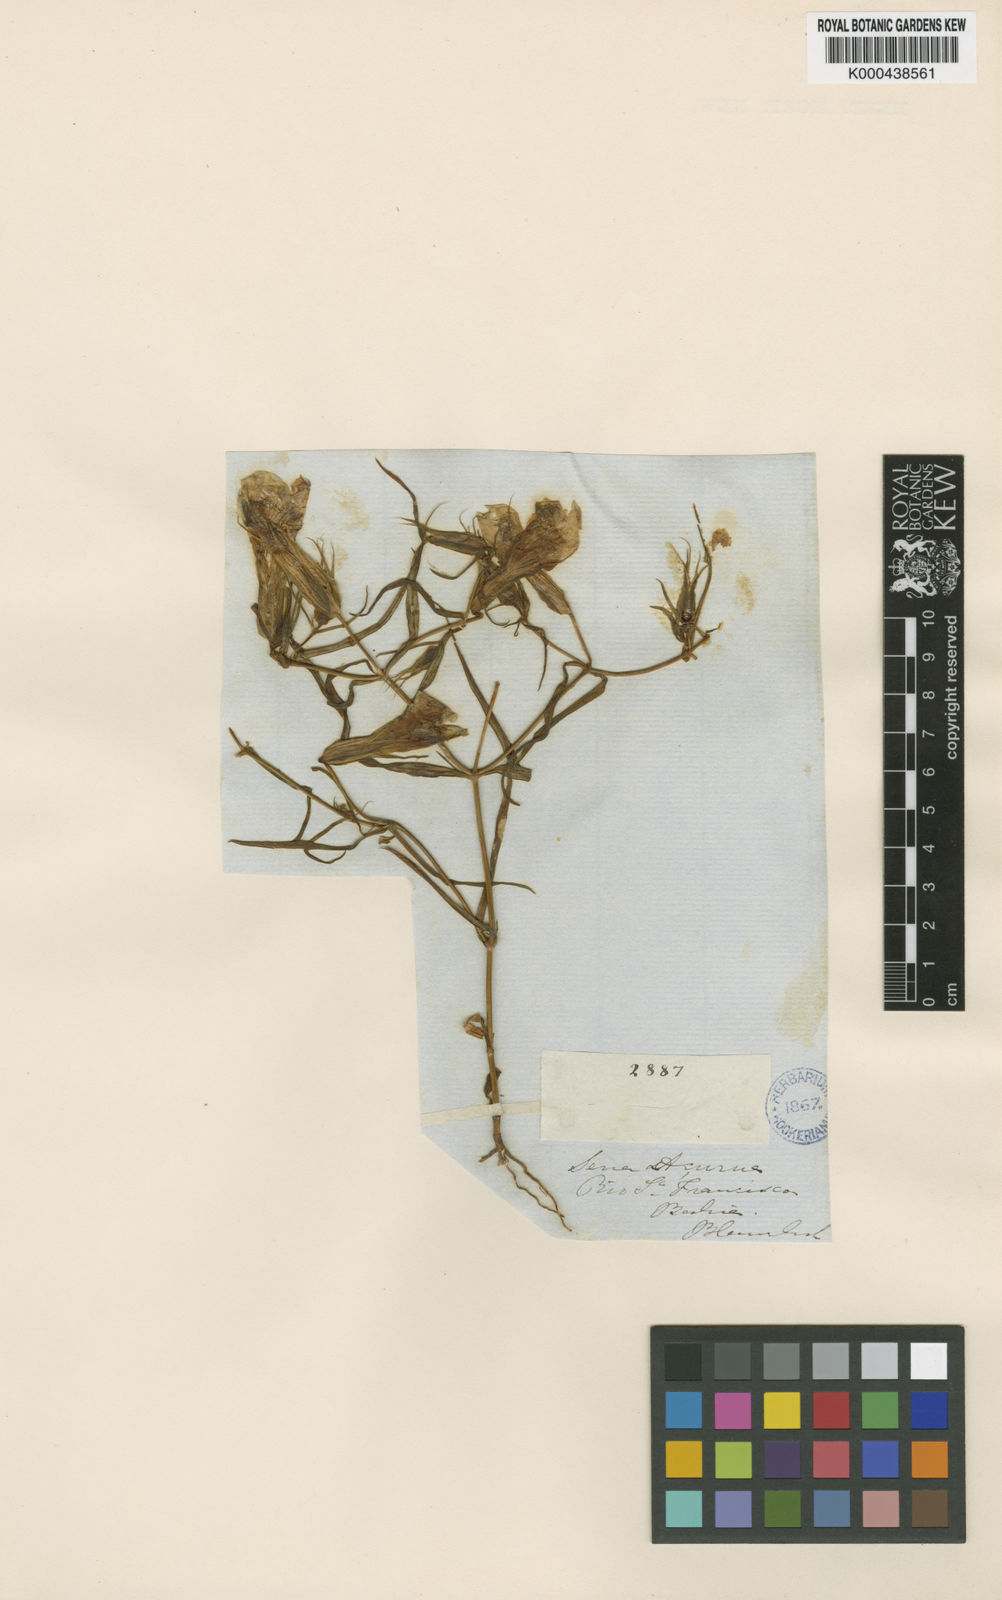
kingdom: Plantae
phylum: Tracheophyta
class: Magnoliopsida
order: Gentianales
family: Gentianaceae
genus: Schultesia
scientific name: Schultesia angustifolia
